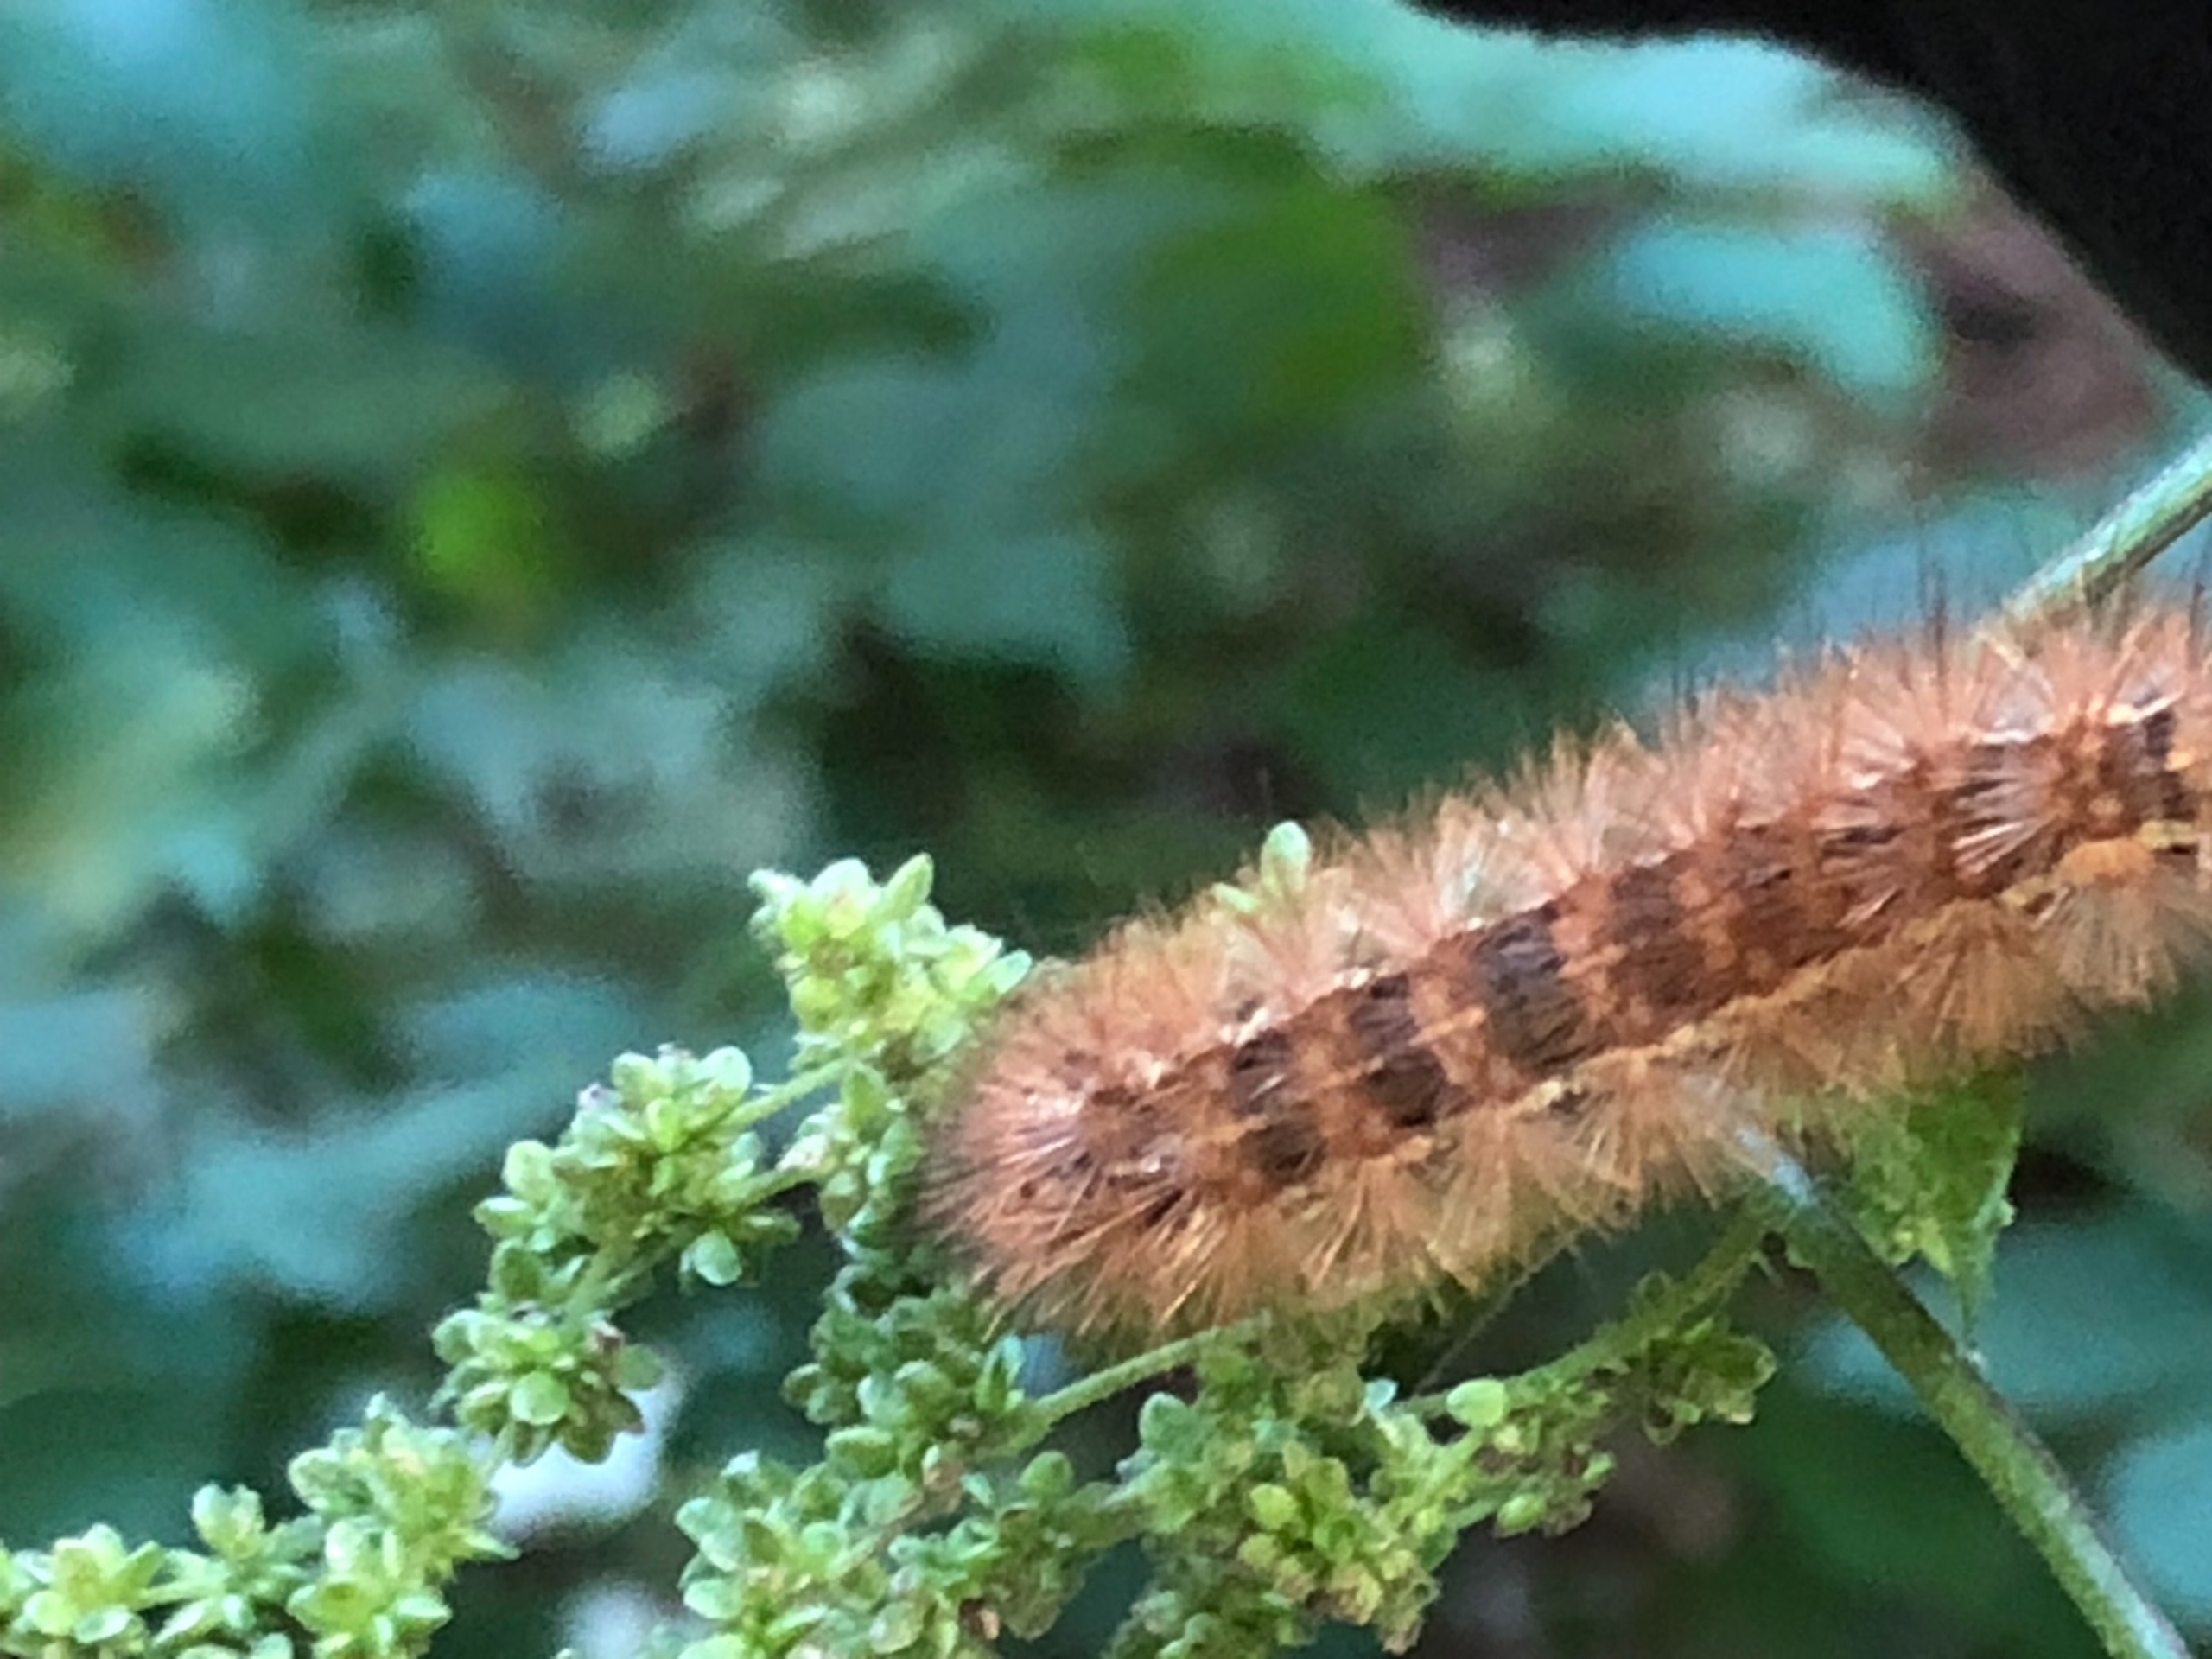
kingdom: Animalia
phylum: Arthropoda
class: Insecta
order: Lepidoptera
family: Erebidae
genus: Spilarctia
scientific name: Spilarctia lutea
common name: Gul tigerspinder
